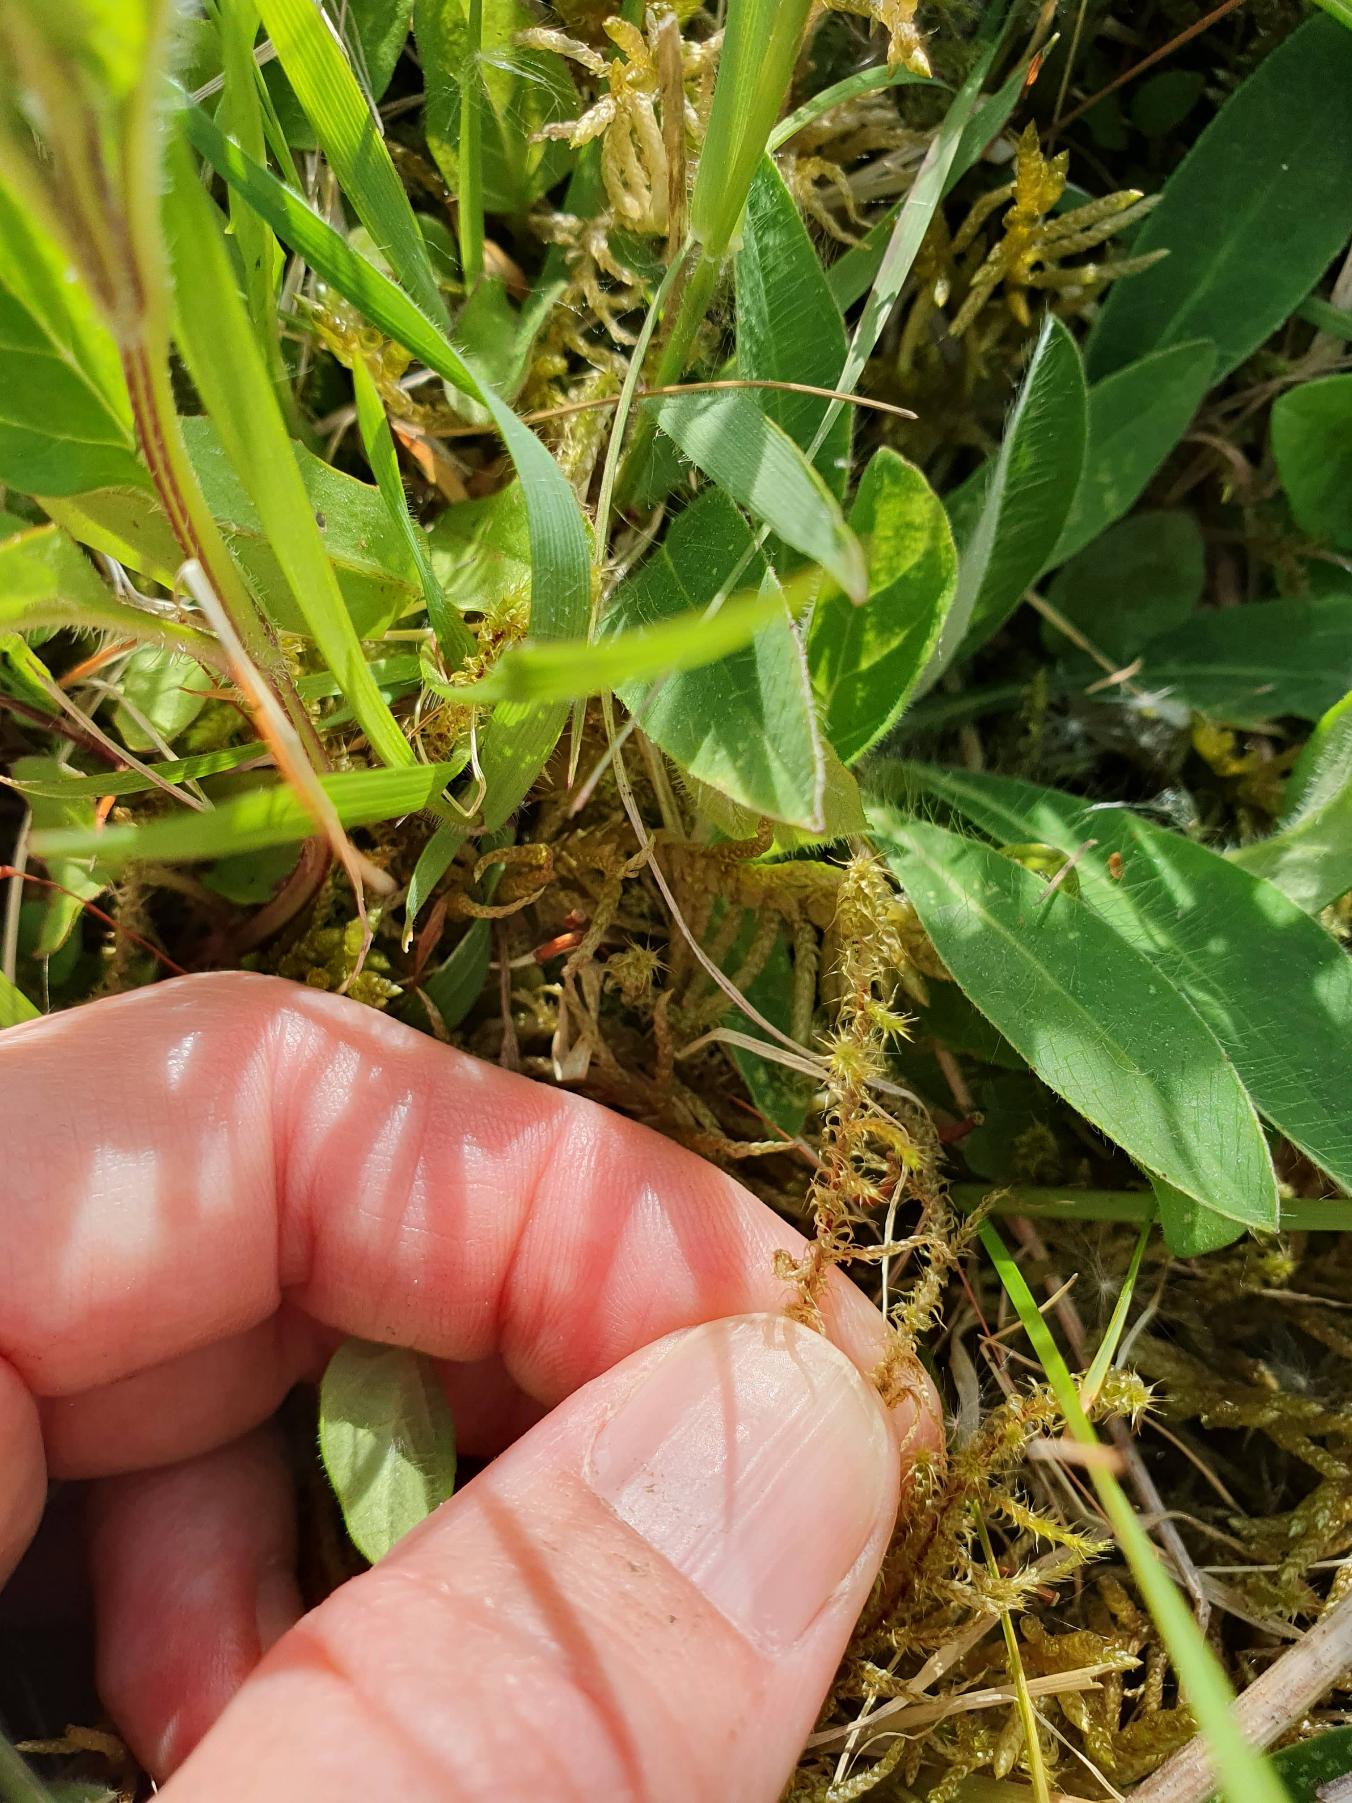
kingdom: Plantae
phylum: Bryophyta
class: Bryopsida
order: Hypnales
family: Hylocomiaceae
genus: Rhytidiadelphus
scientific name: Rhytidiadelphus squarrosus
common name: Plæne-kransemos
